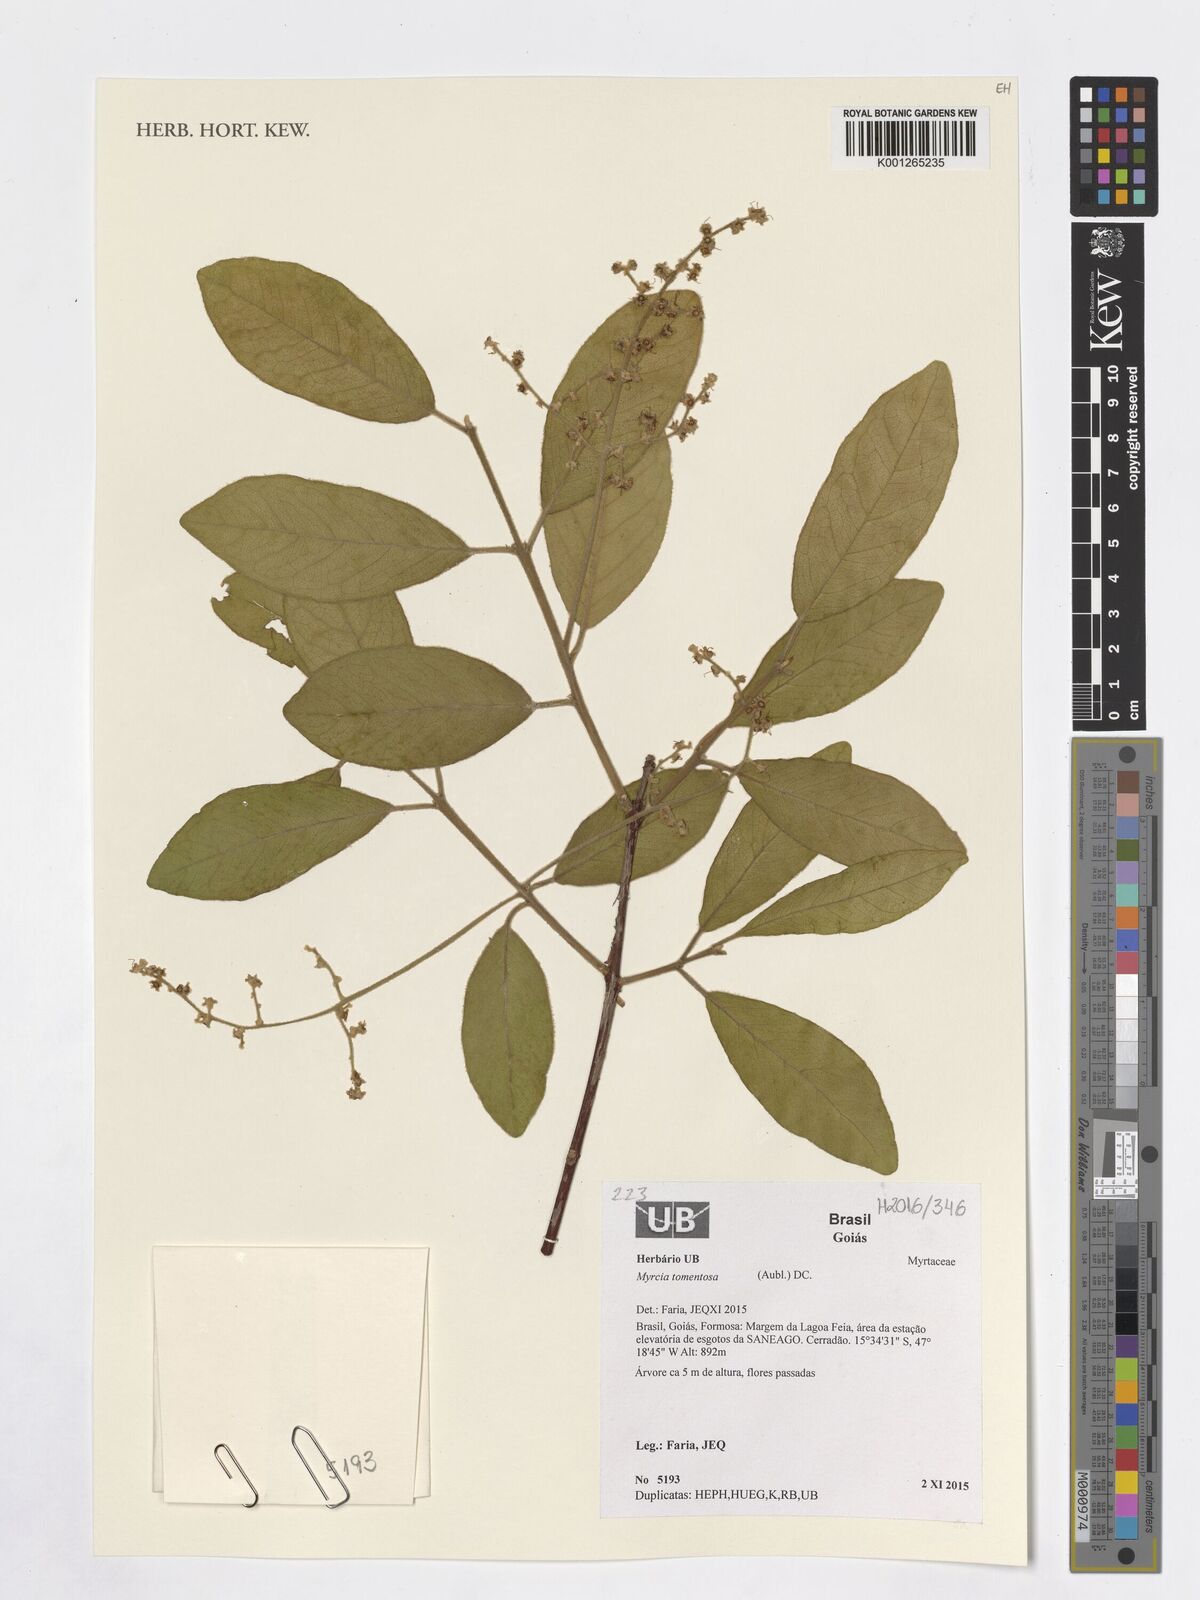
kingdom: Plantae
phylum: Tracheophyta
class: Magnoliopsida
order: Myrtales
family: Myrtaceae
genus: Myrcia
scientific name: Myrcia tomentosa
